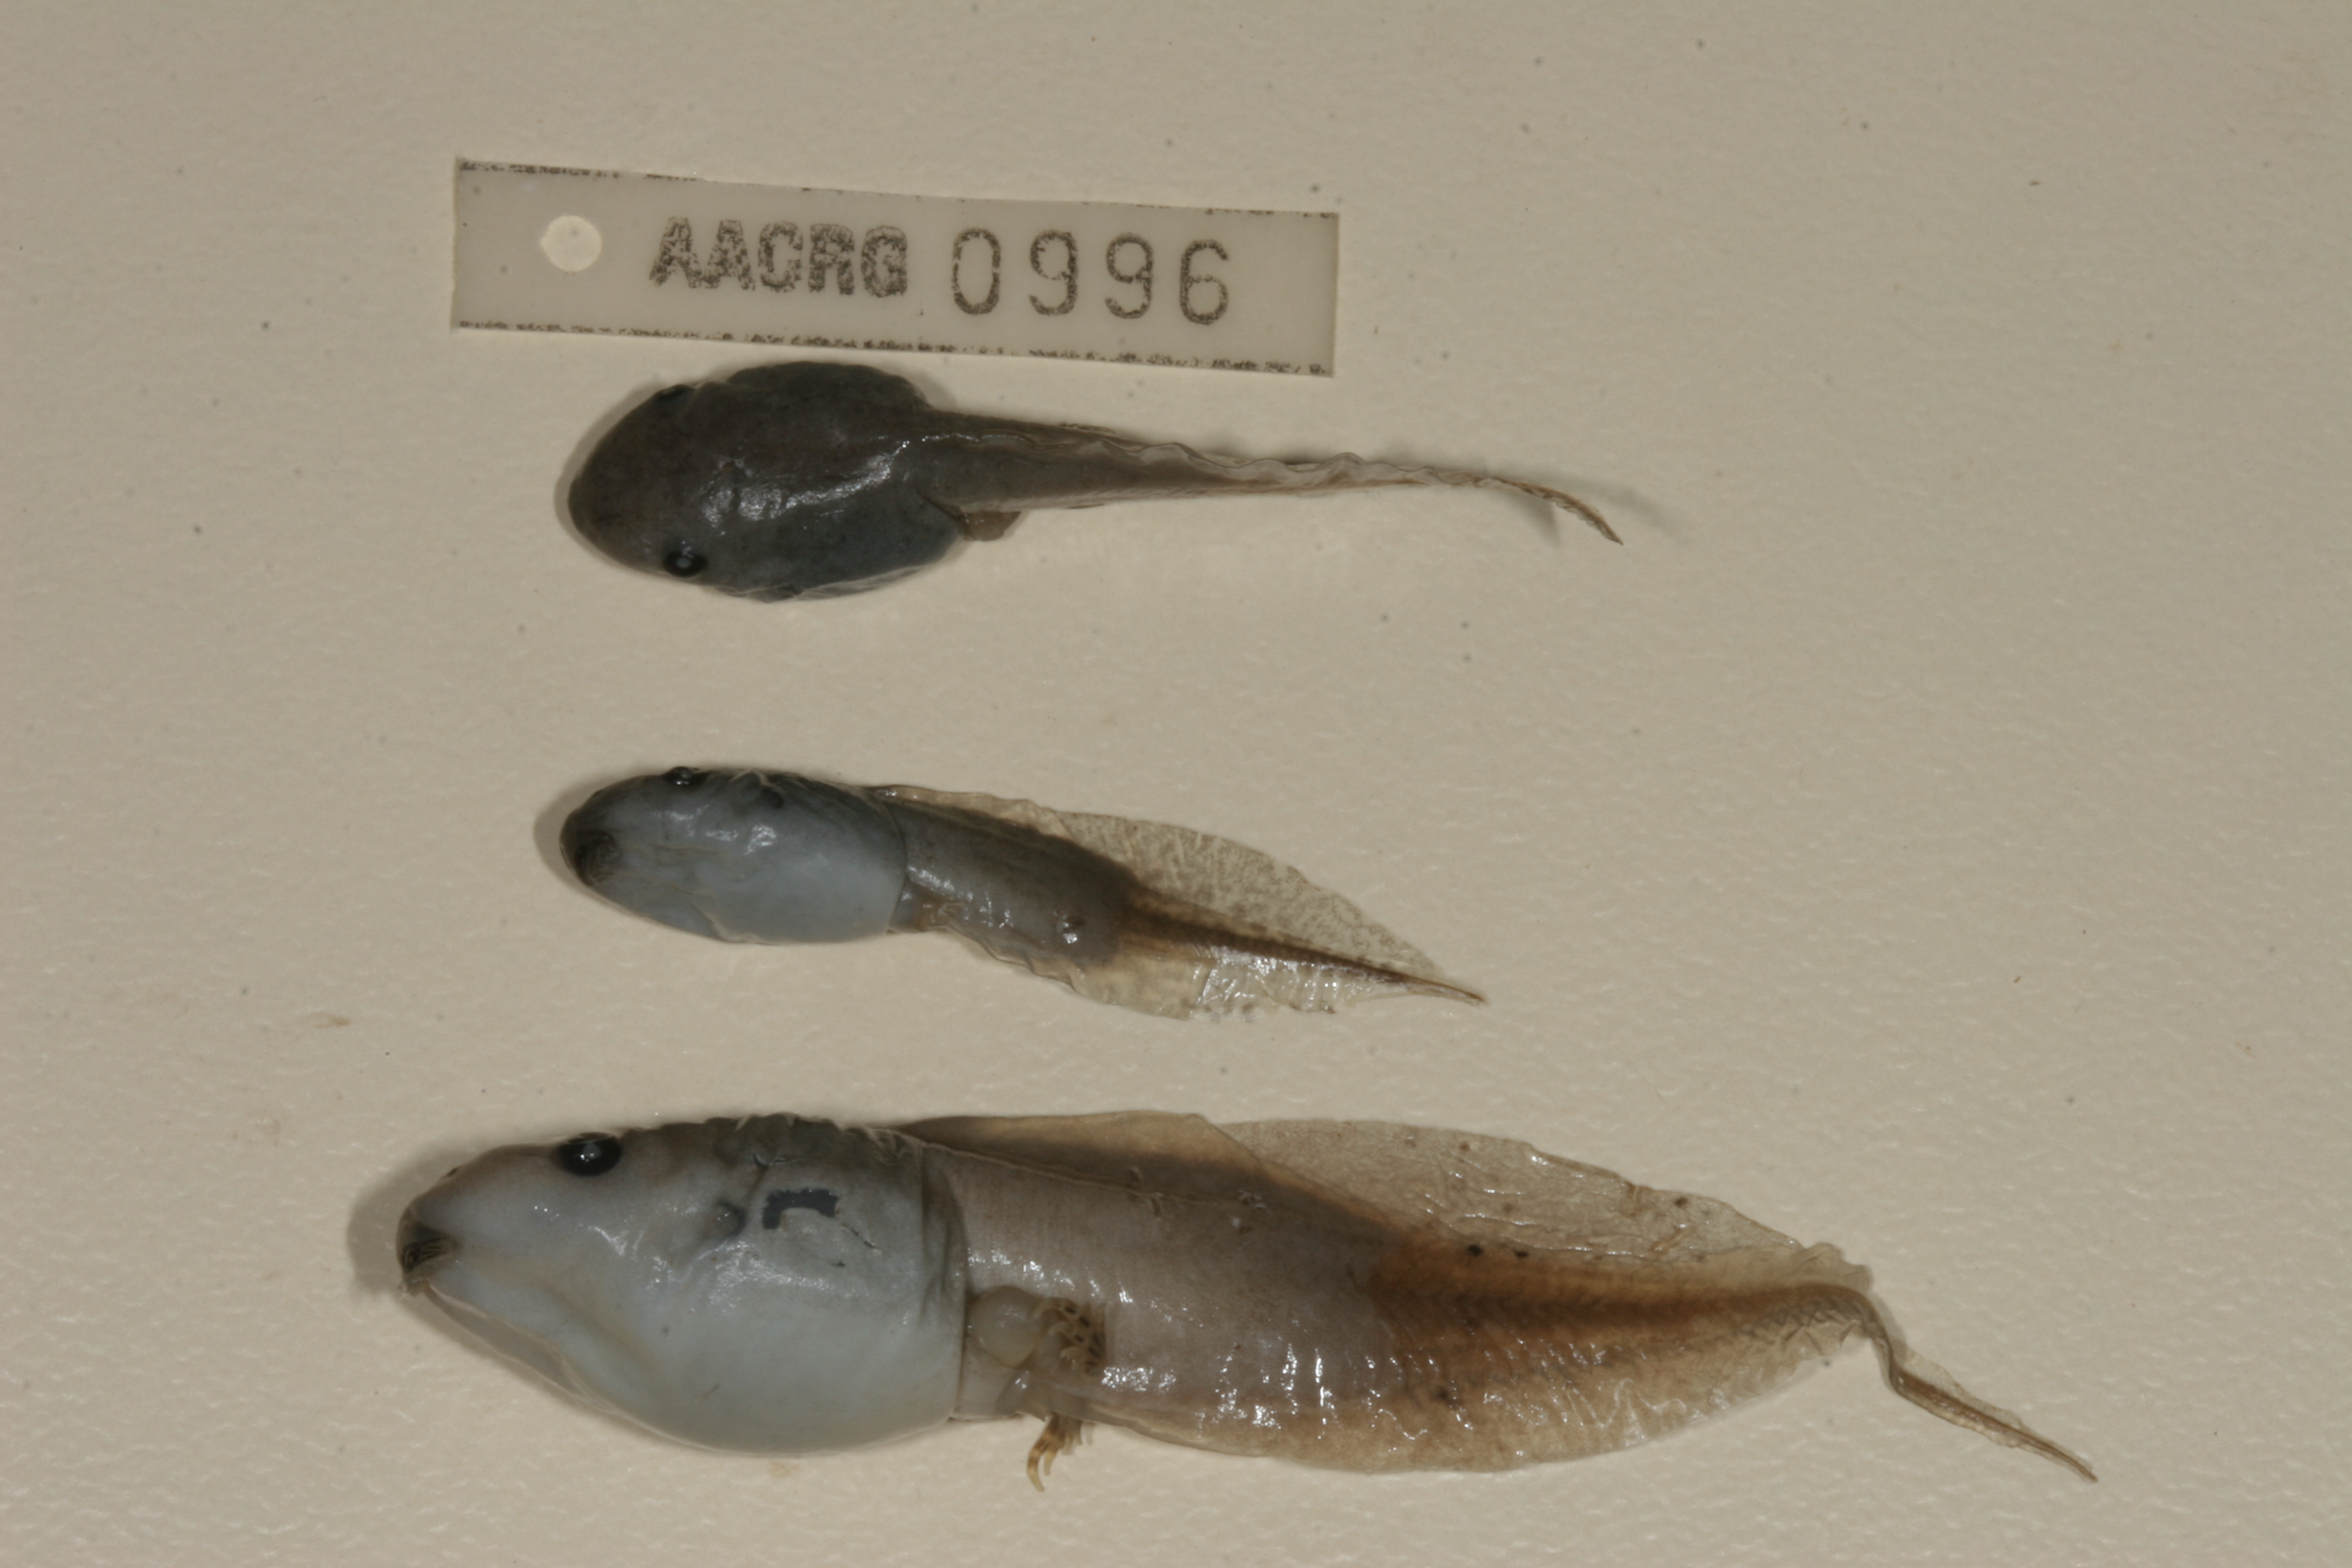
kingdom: Animalia
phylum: Chordata
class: Amphibia
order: Anura
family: Hemisotidae
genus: Hemisus
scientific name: Hemisus marmoratus
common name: Mottled shovel-nosed frog
